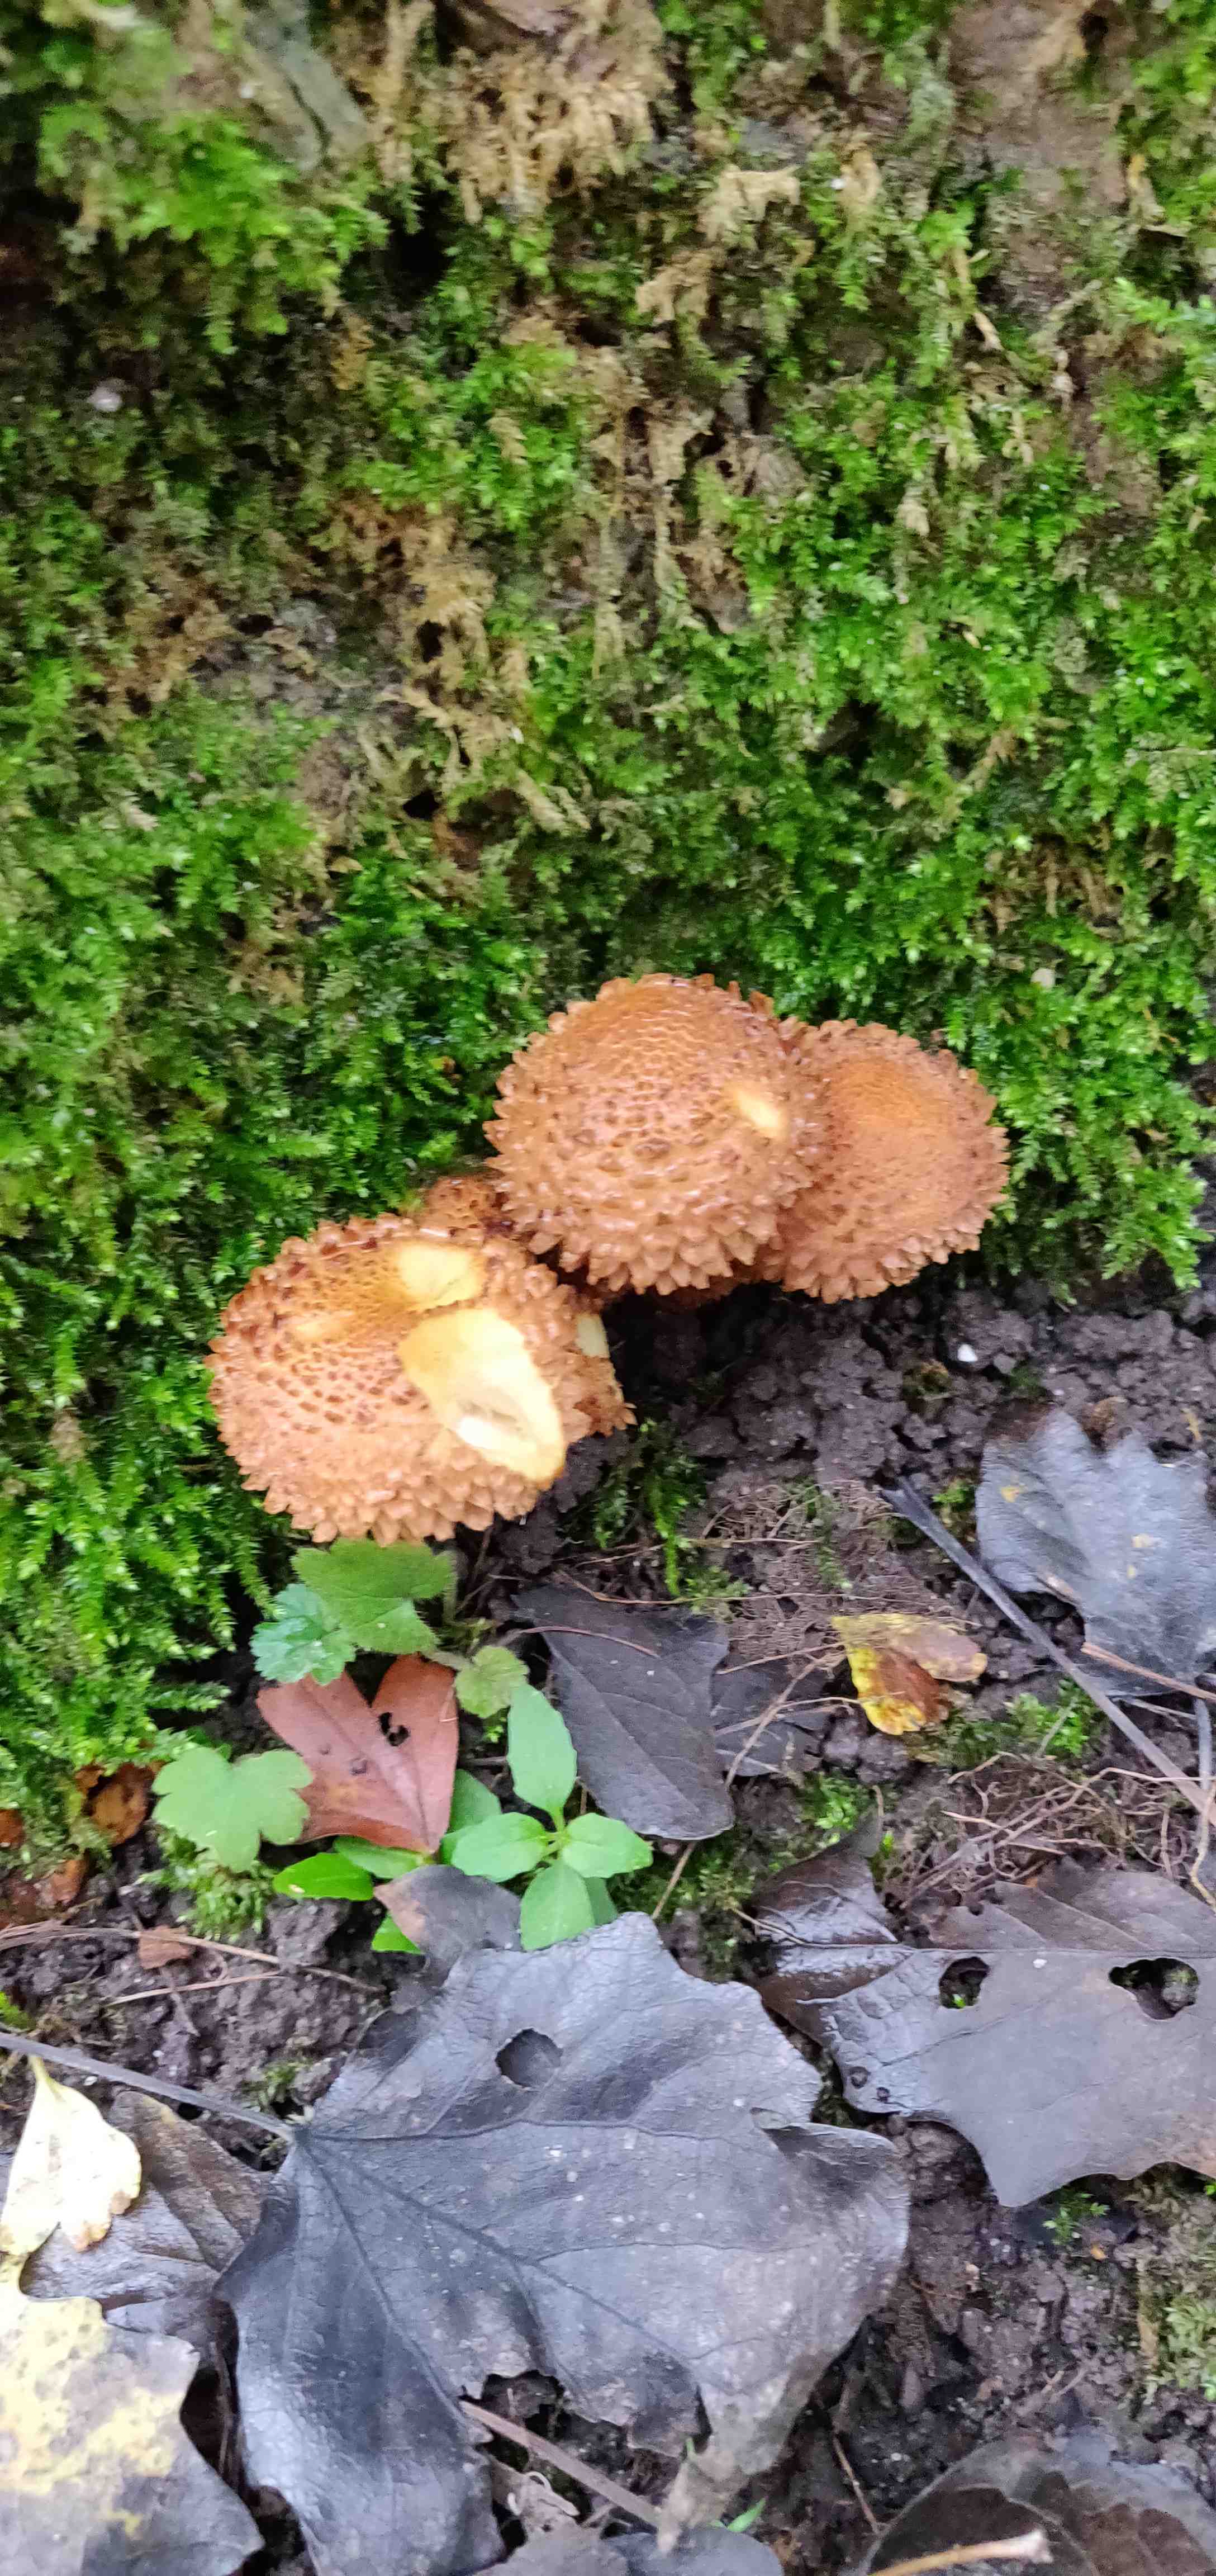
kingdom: Fungi
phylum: Basidiomycota
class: Agaricomycetes
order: Agaricales
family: Strophariaceae
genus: Pholiota
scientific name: Pholiota squarrosa
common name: krumskællet skælhat
